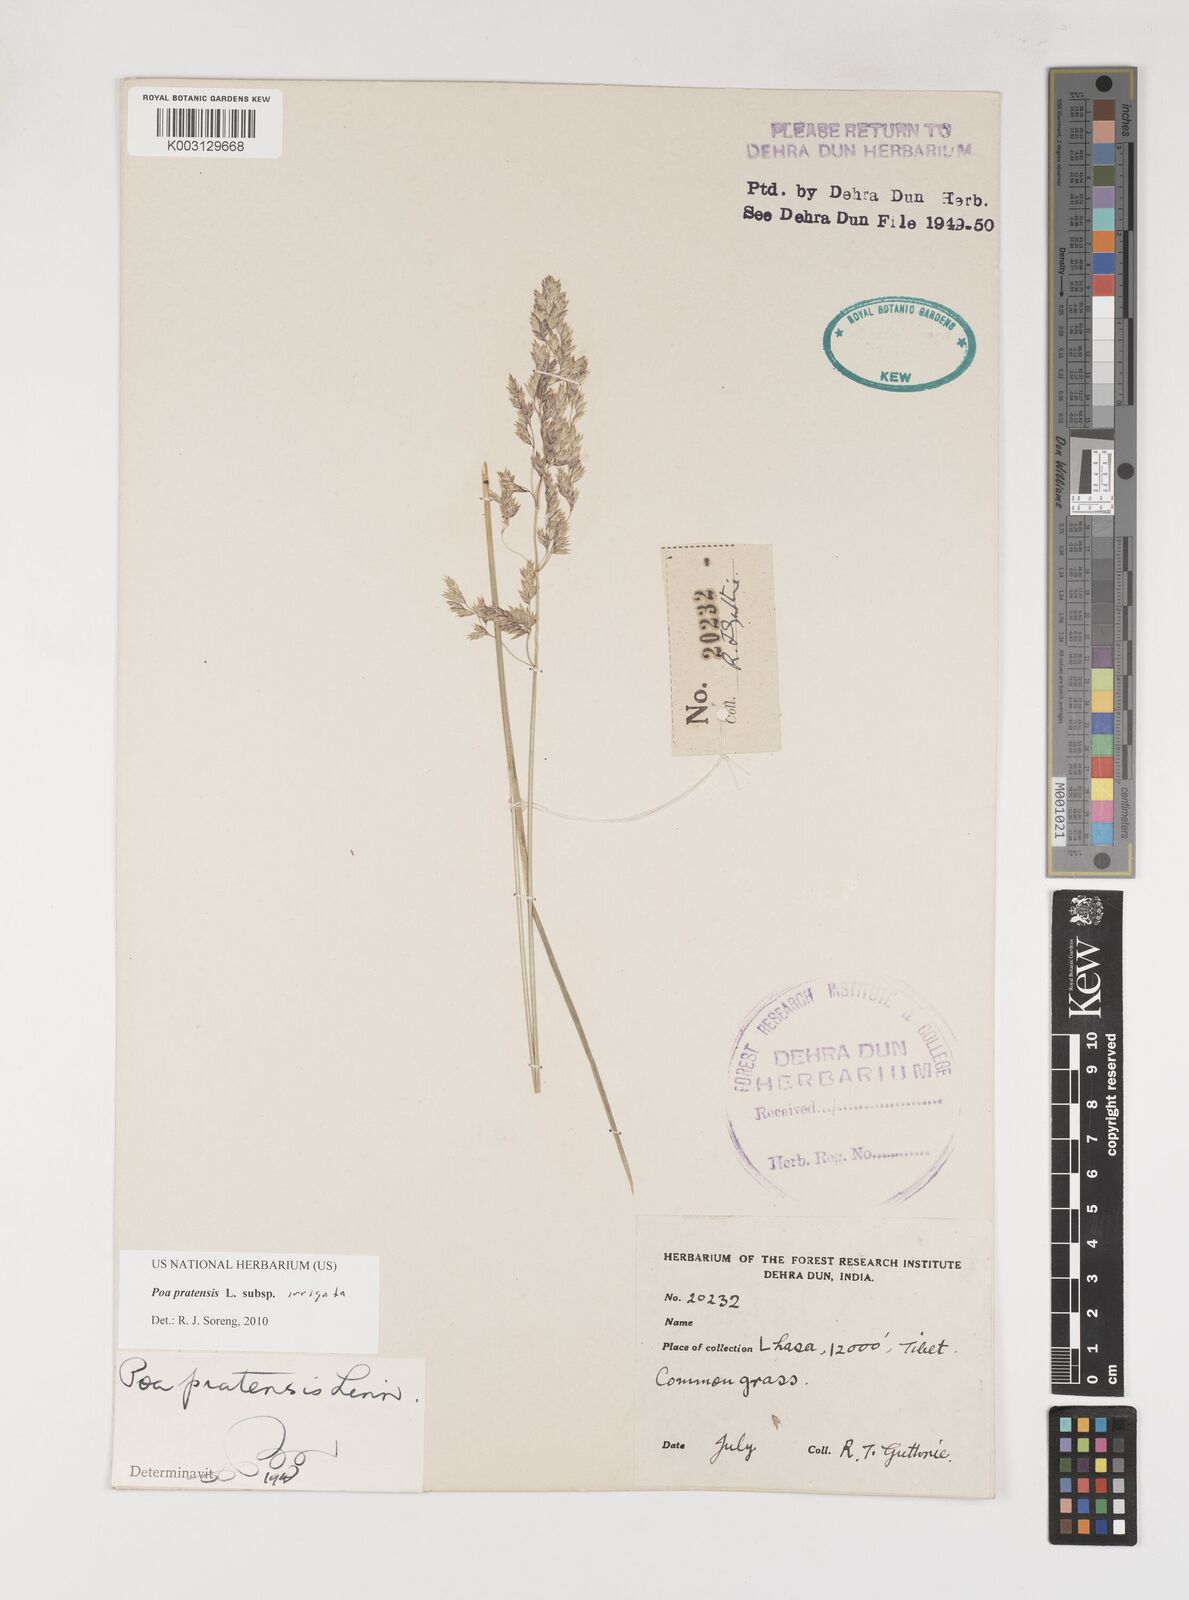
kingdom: Plantae
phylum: Tracheophyta
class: Liliopsida
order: Poales
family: Poaceae
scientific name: Poaceae
